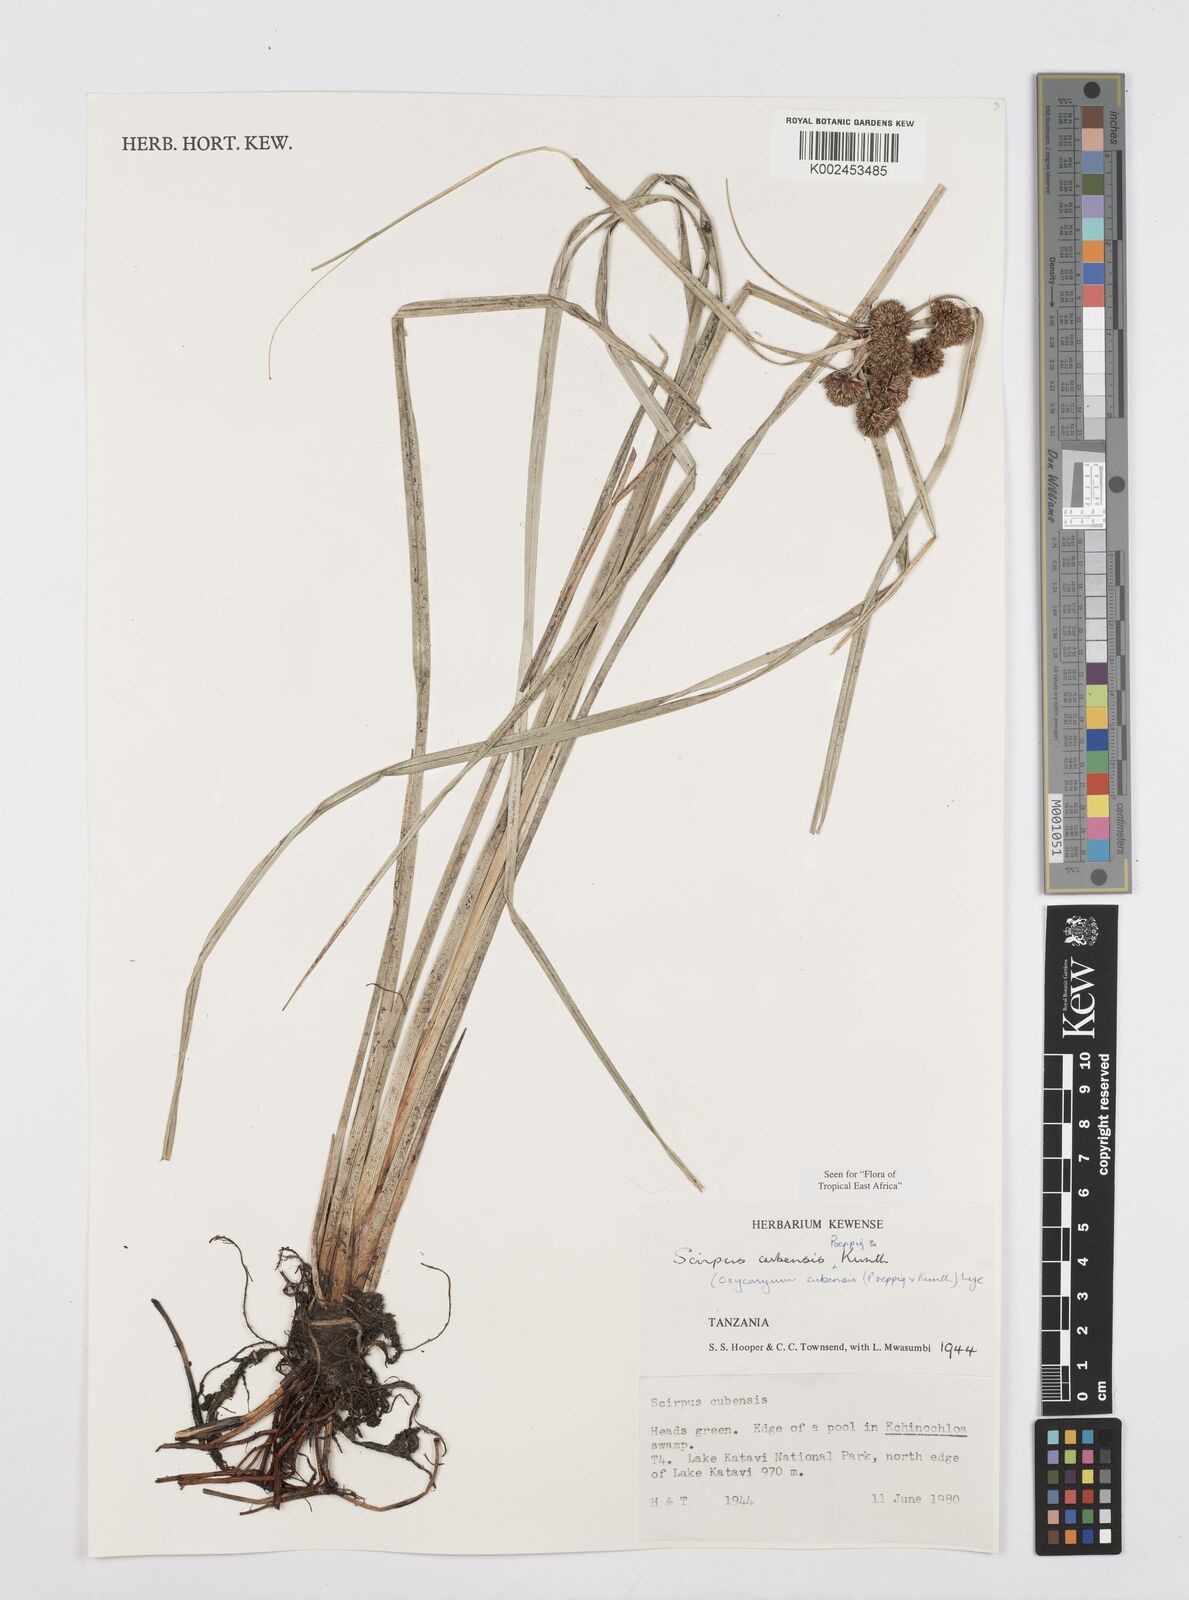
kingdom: Plantae
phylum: Tracheophyta
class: Liliopsida
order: Poales
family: Cyperaceae
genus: Cyperus
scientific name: Cyperus elegans
